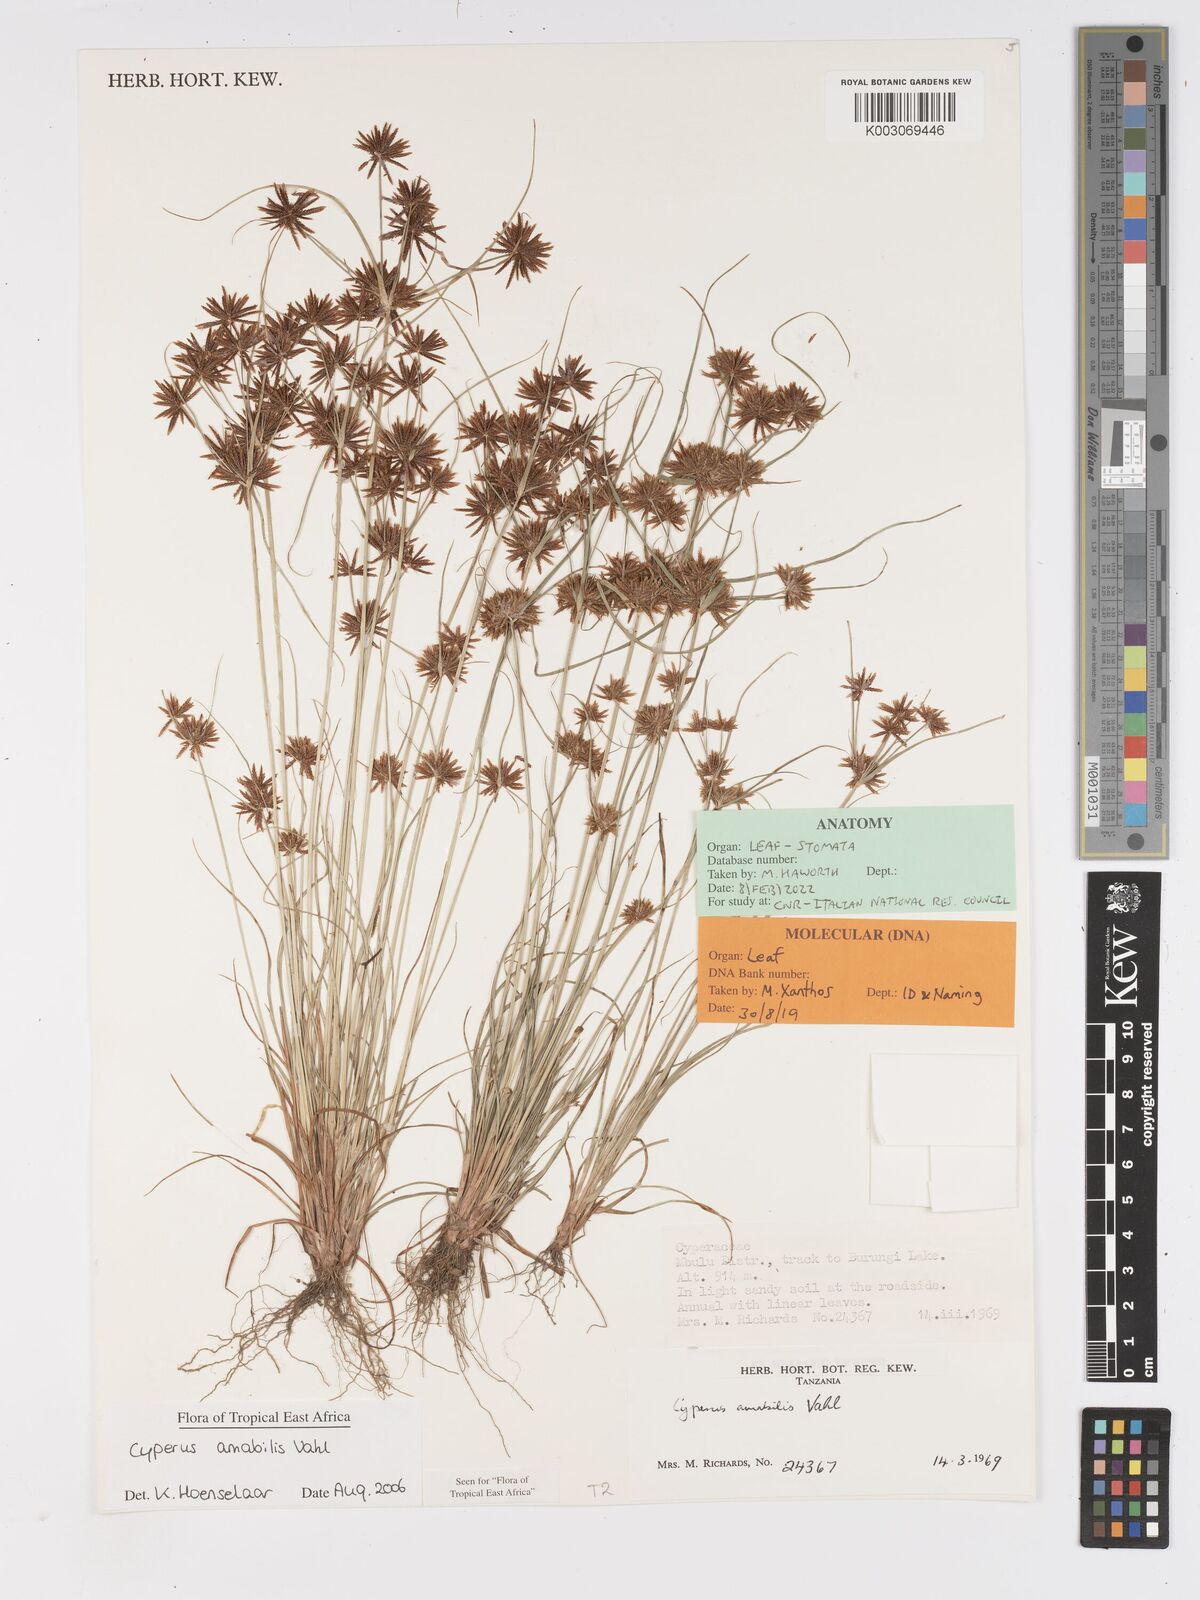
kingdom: Plantae
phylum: Tracheophyta
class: Liliopsida
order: Poales
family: Cyperaceae
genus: Cyperus
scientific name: Cyperus amabilis
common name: Foothill flat sedge
